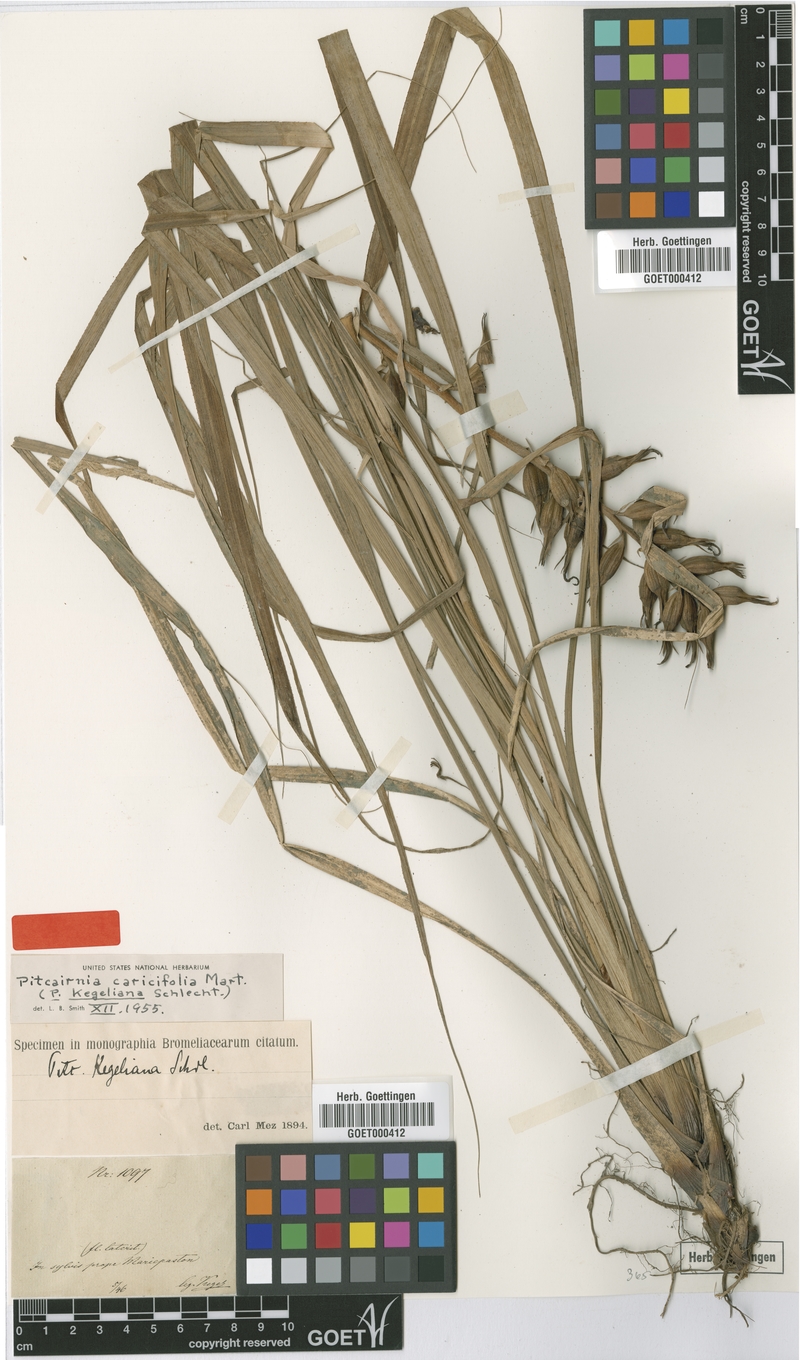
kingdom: Plantae
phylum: Tracheophyta
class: Liliopsida
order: Poales
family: Bromeliaceae
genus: Pitcairnia
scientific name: Pitcairnia caricifolia
